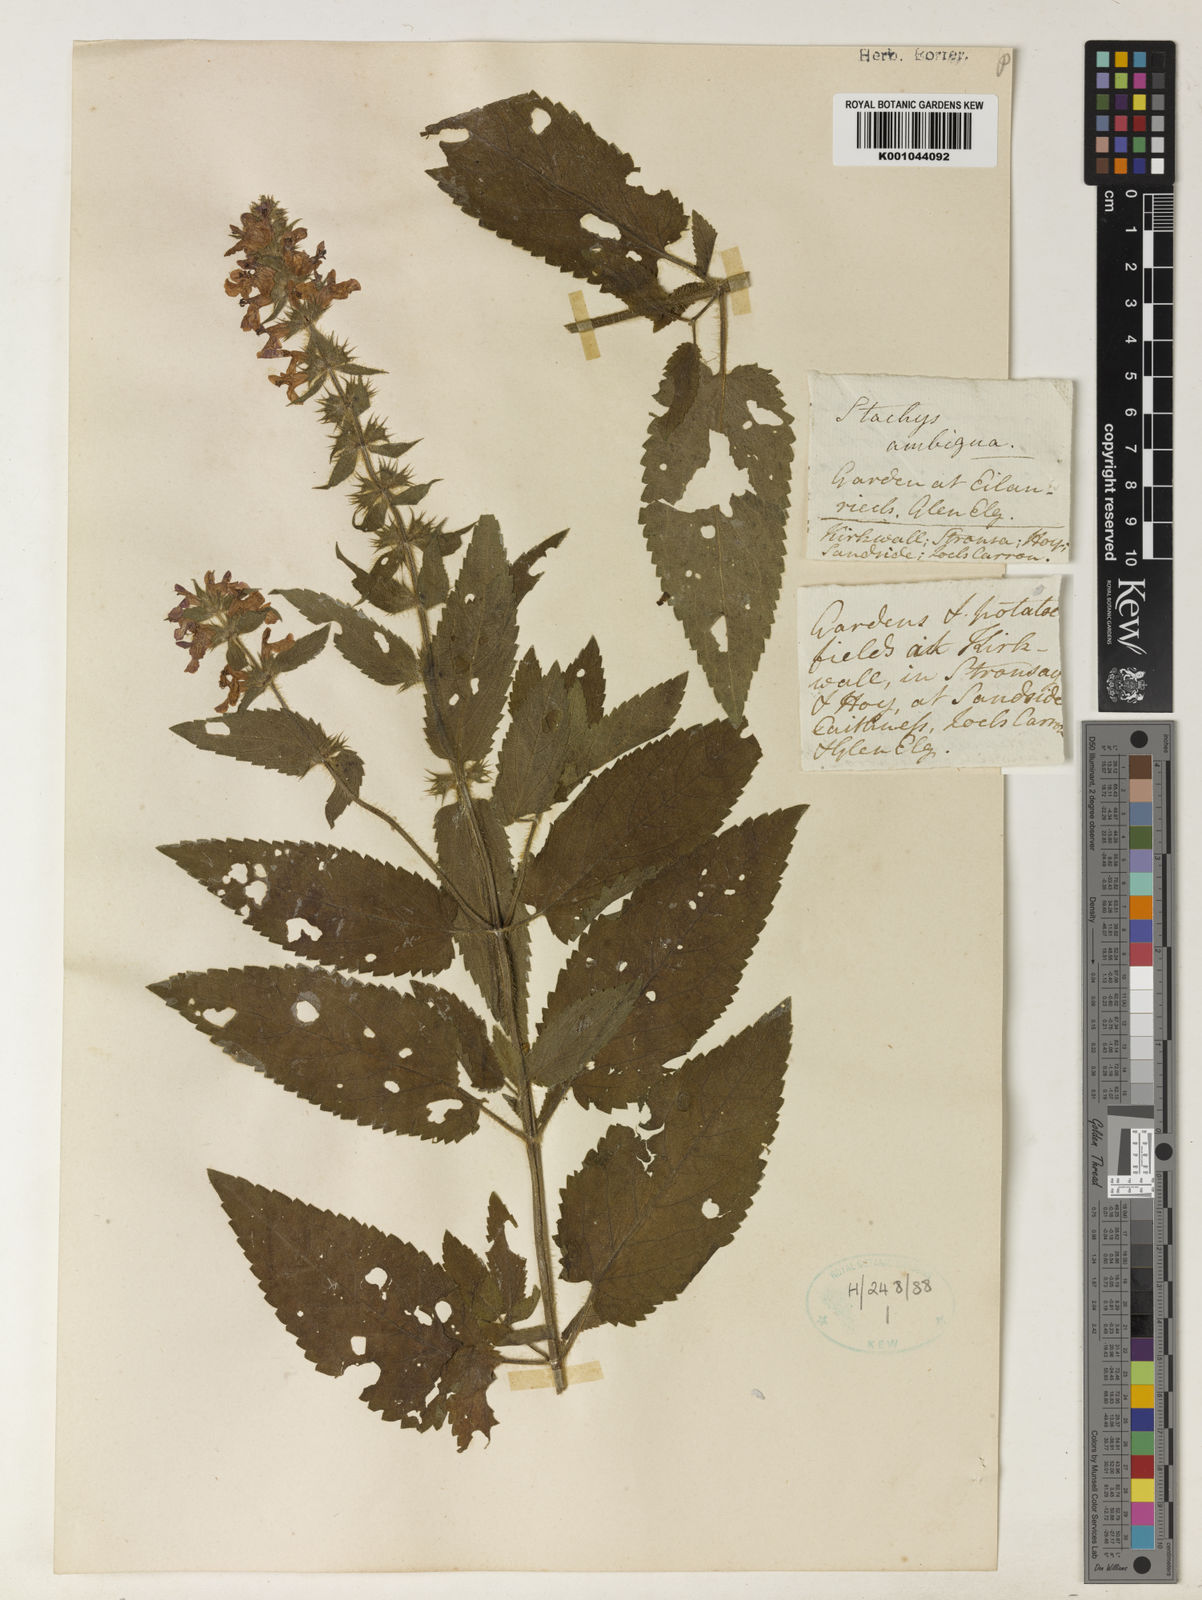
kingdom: Plantae
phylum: Tracheophyta
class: Magnoliopsida
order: Lamiales
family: Lamiaceae
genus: Stachys
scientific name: Stachys
